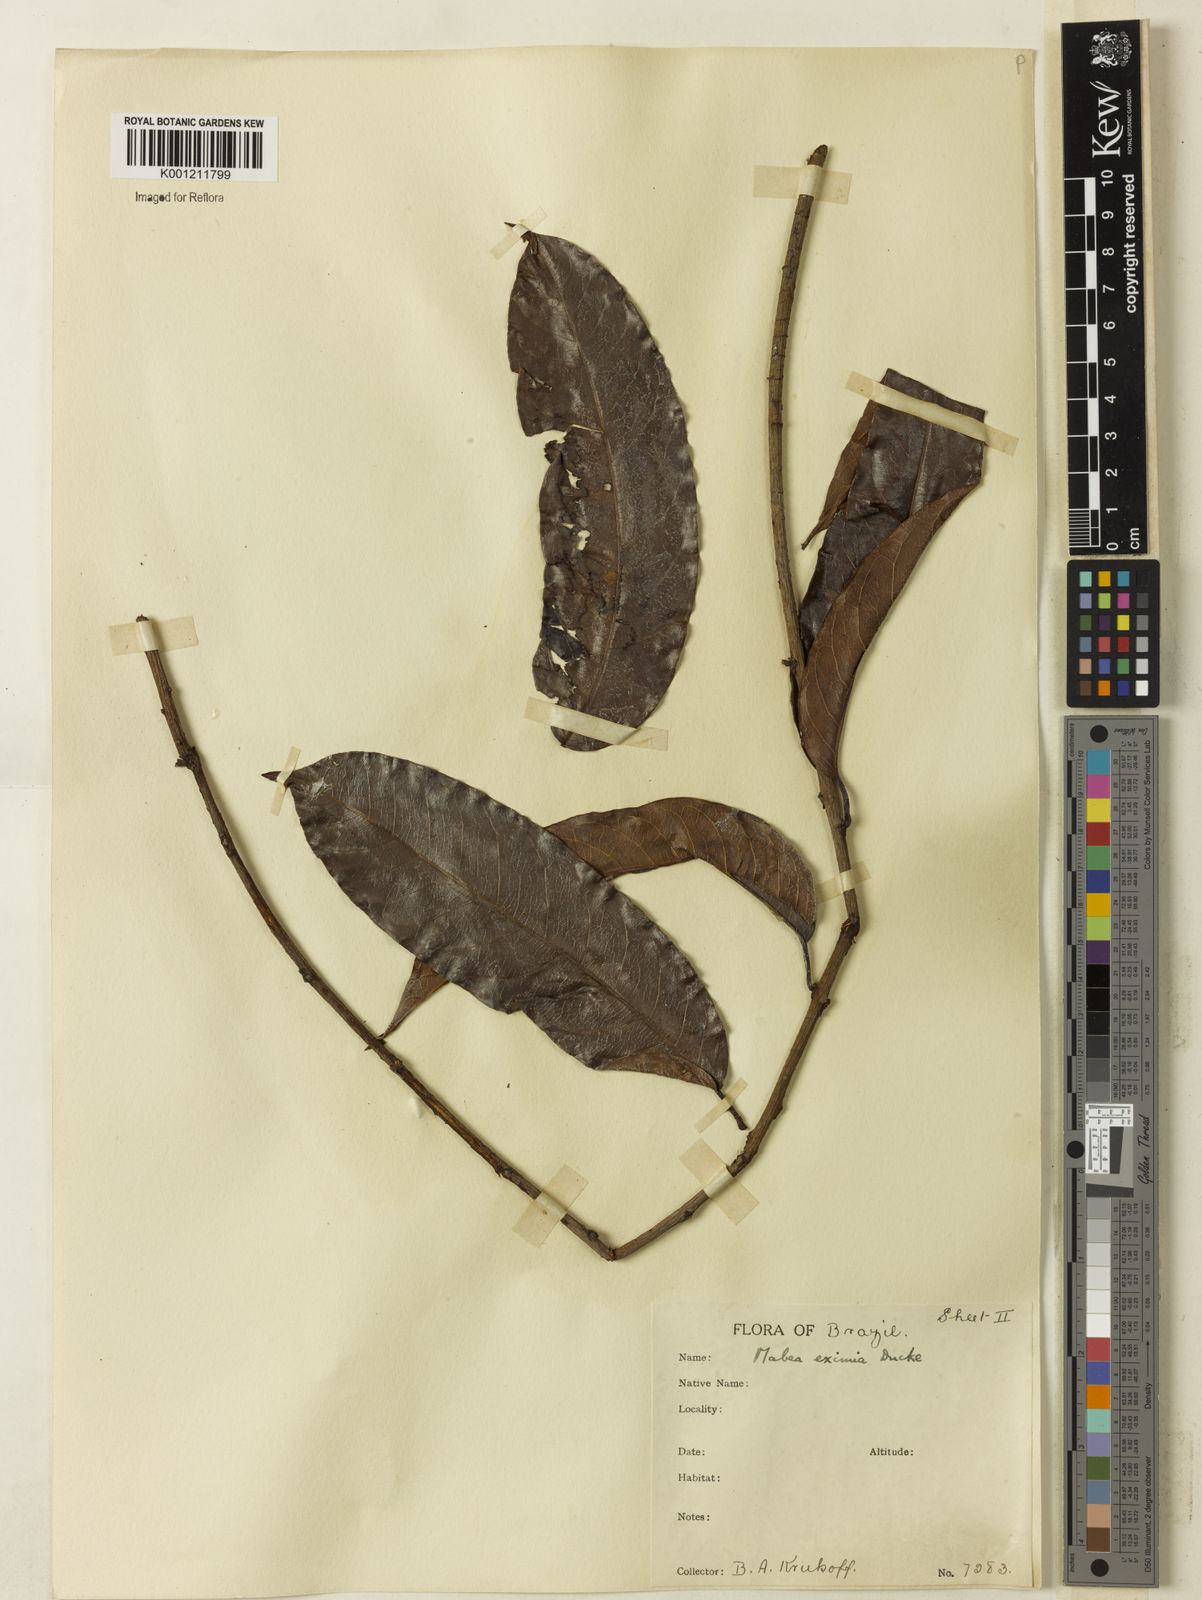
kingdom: Plantae
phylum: Tracheophyta
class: Magnoliopsida
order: Malpighiales
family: Euphorbiaceae
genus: Mabea
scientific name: Mabea
